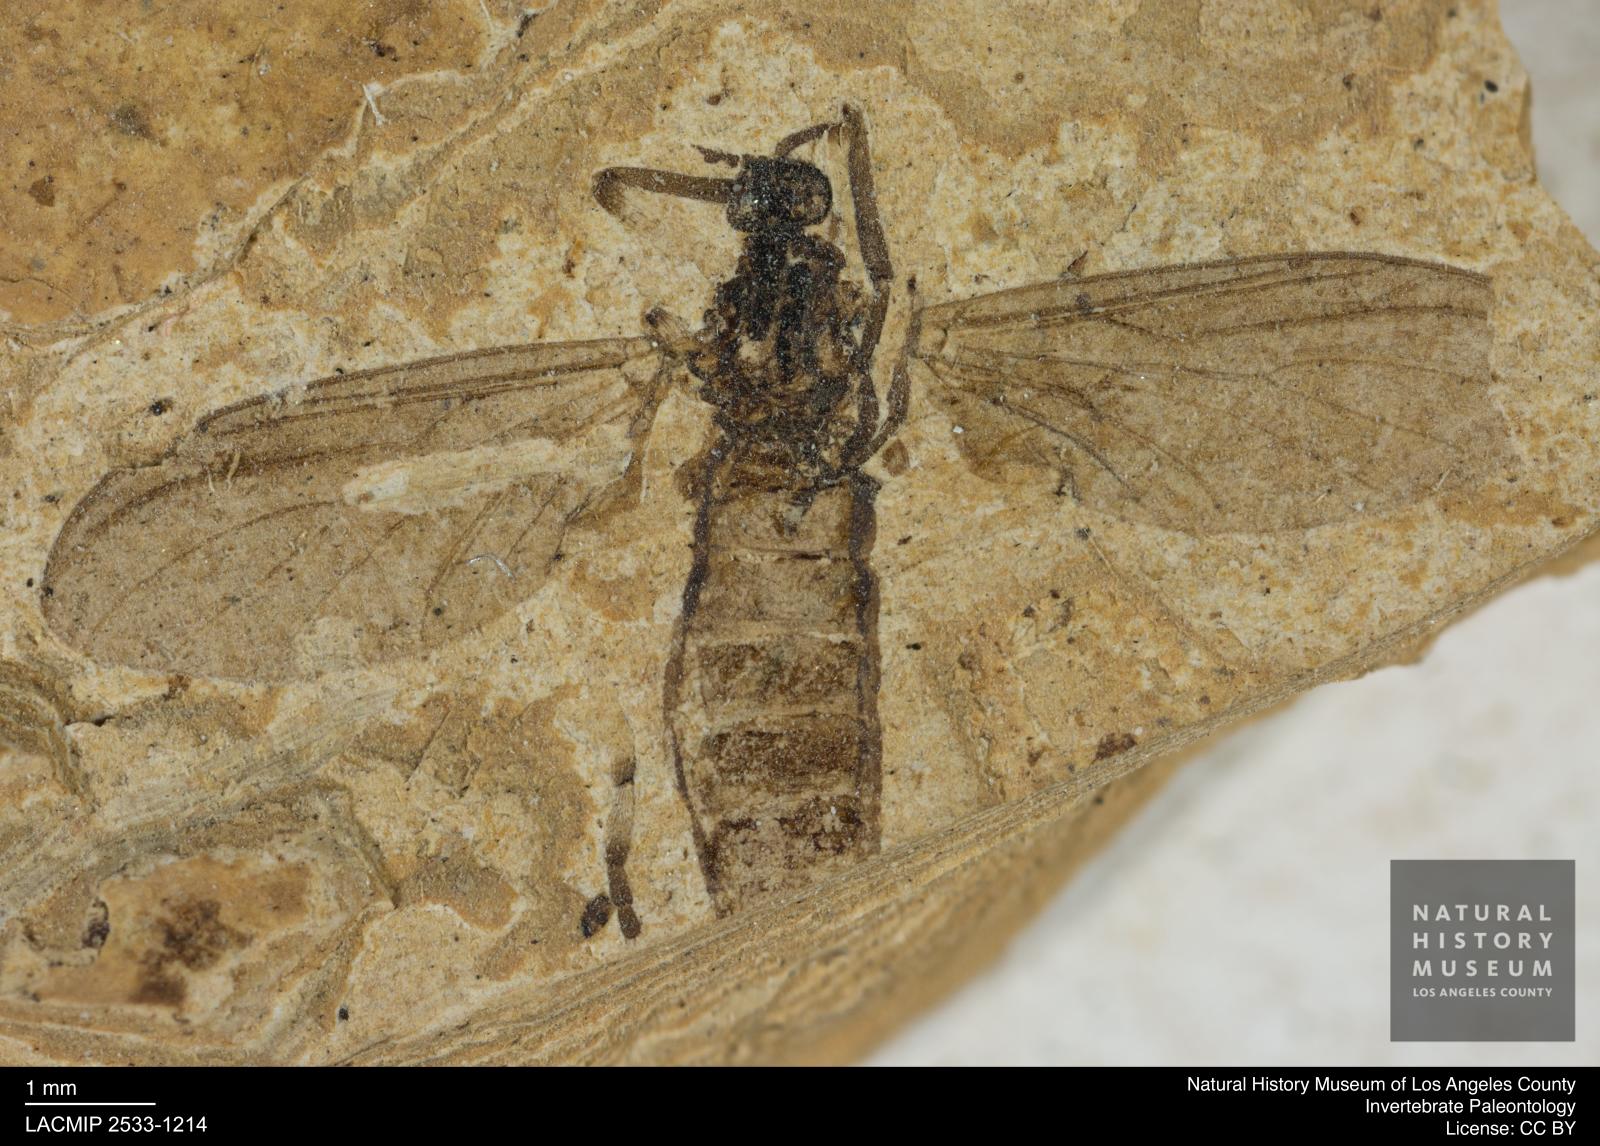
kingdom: Animalia
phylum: Arthropoda
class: Insecta
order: Diptera
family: Bibionidae
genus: Plecia
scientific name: Plecia pinguis
